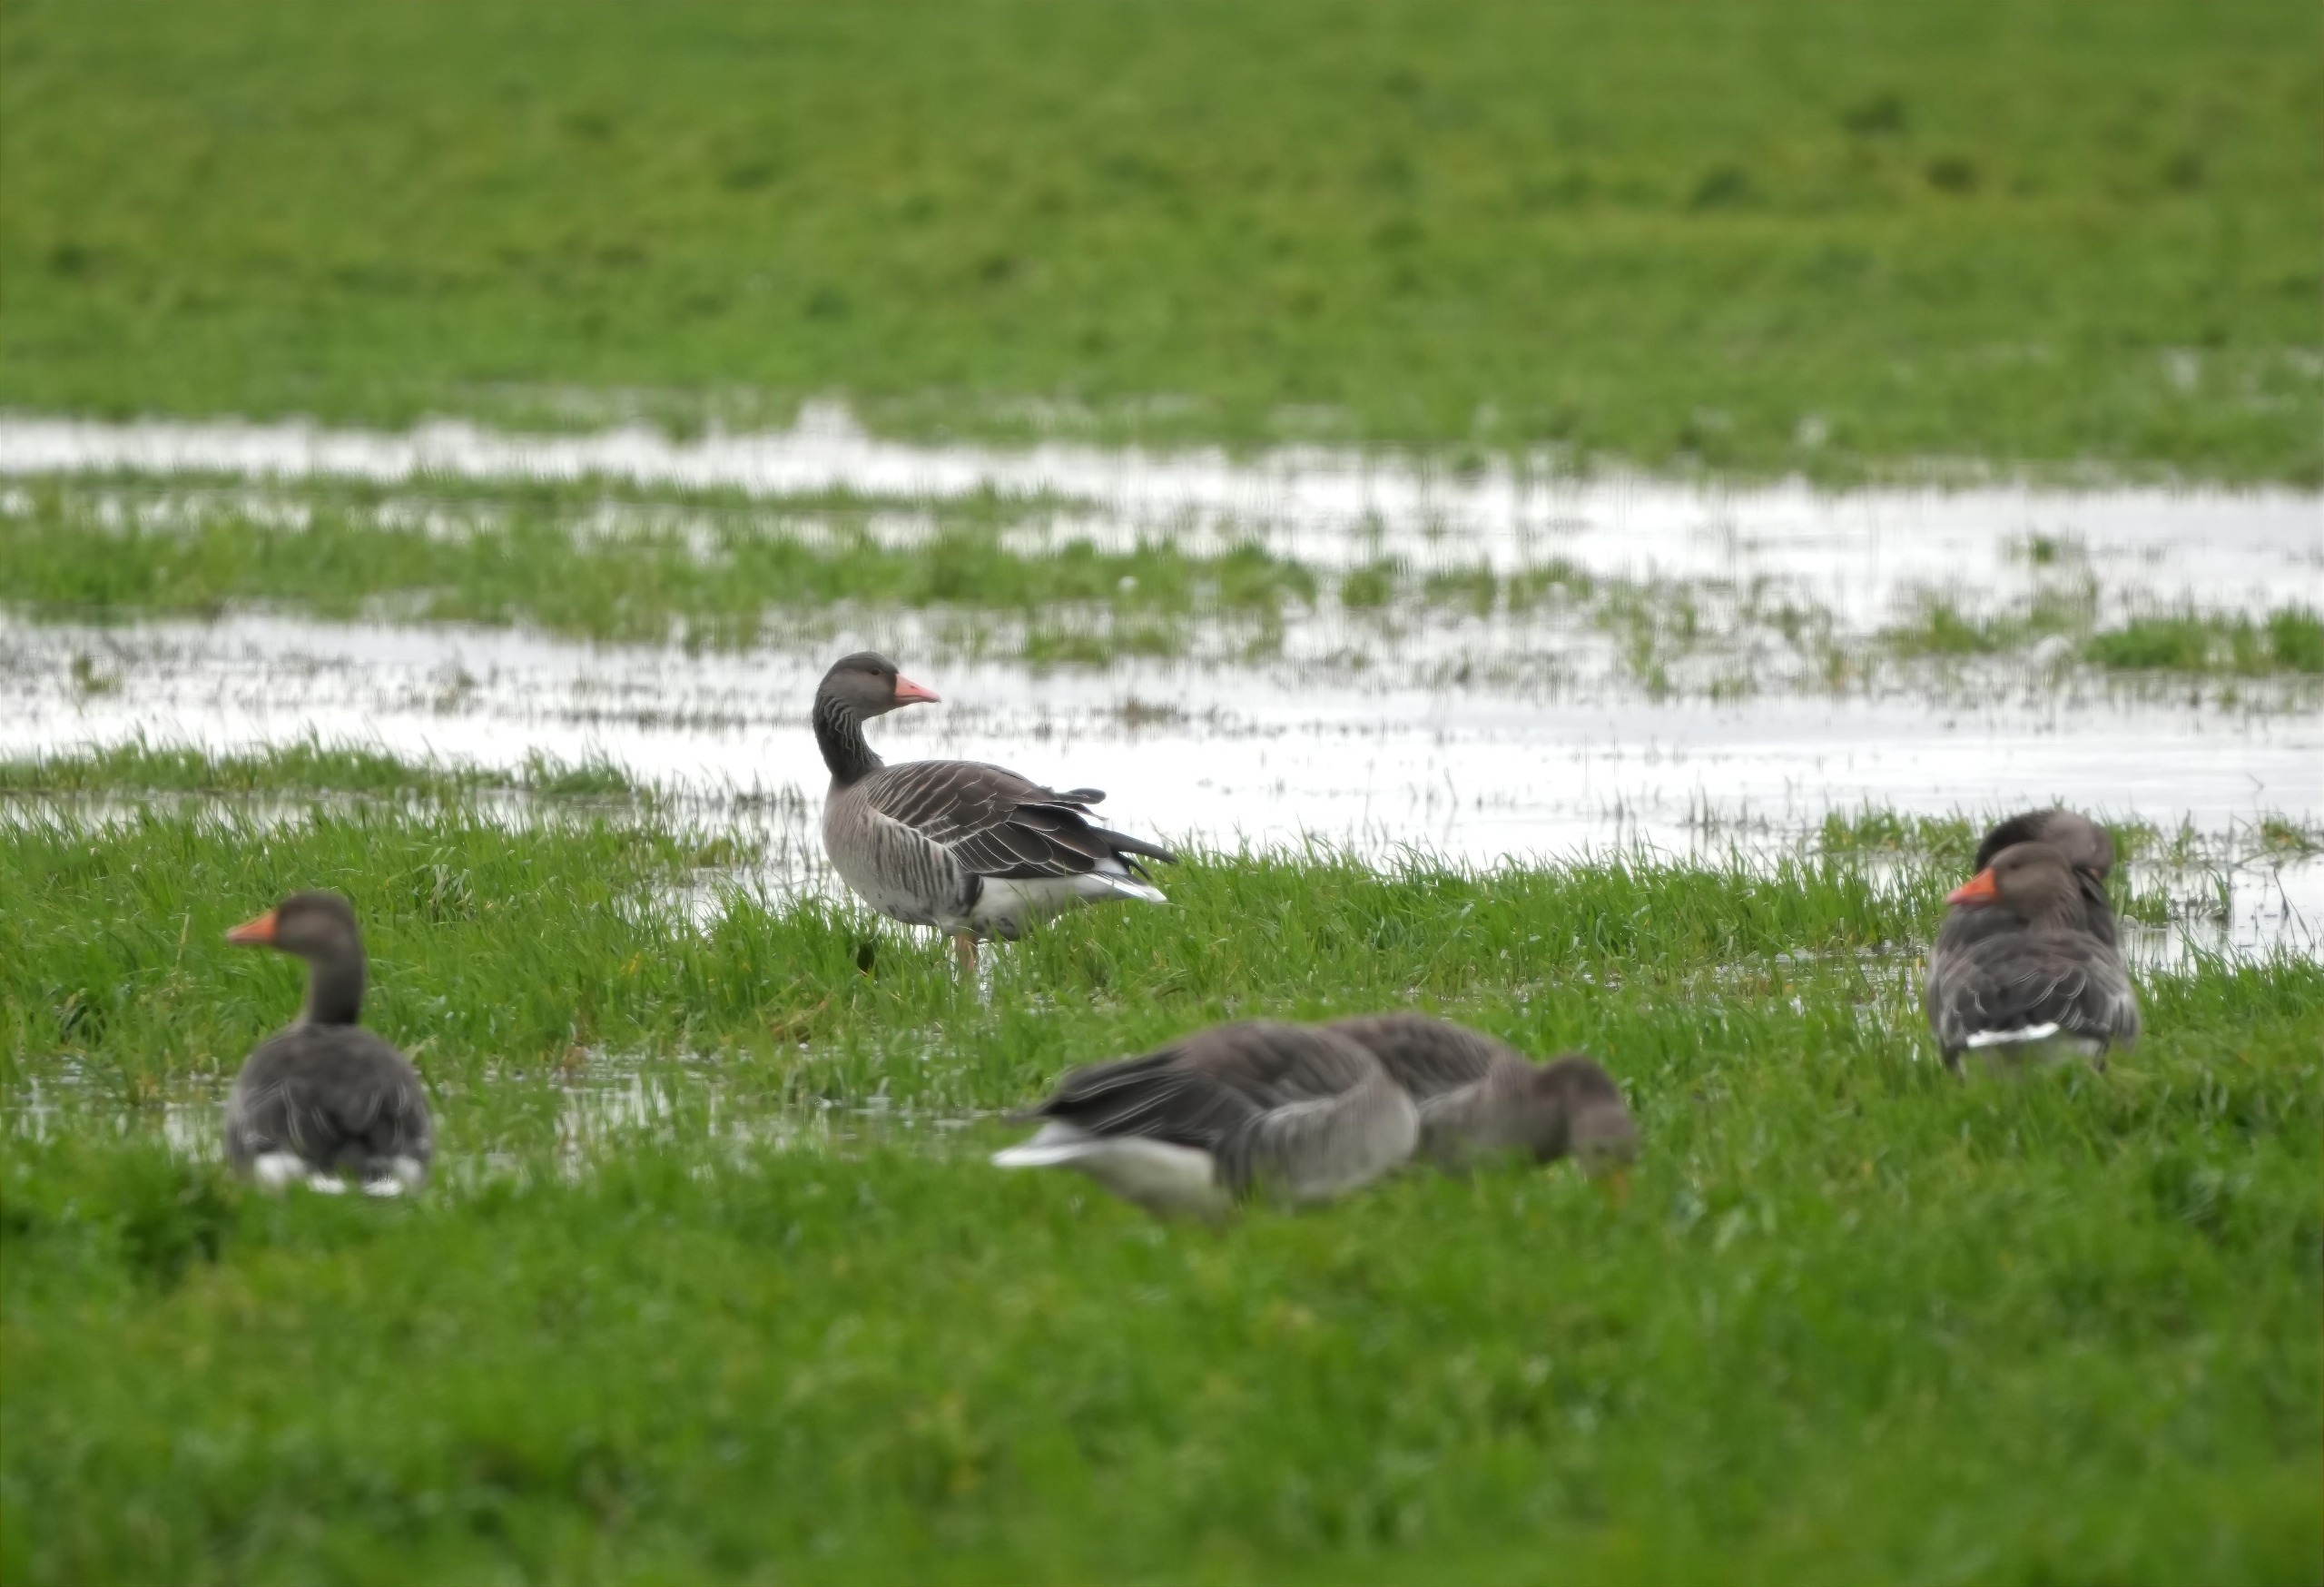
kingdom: Animalia
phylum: Chordata
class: Aves
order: Anseriformes
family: Anatidae
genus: Anser
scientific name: Anser anser
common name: Grågås
